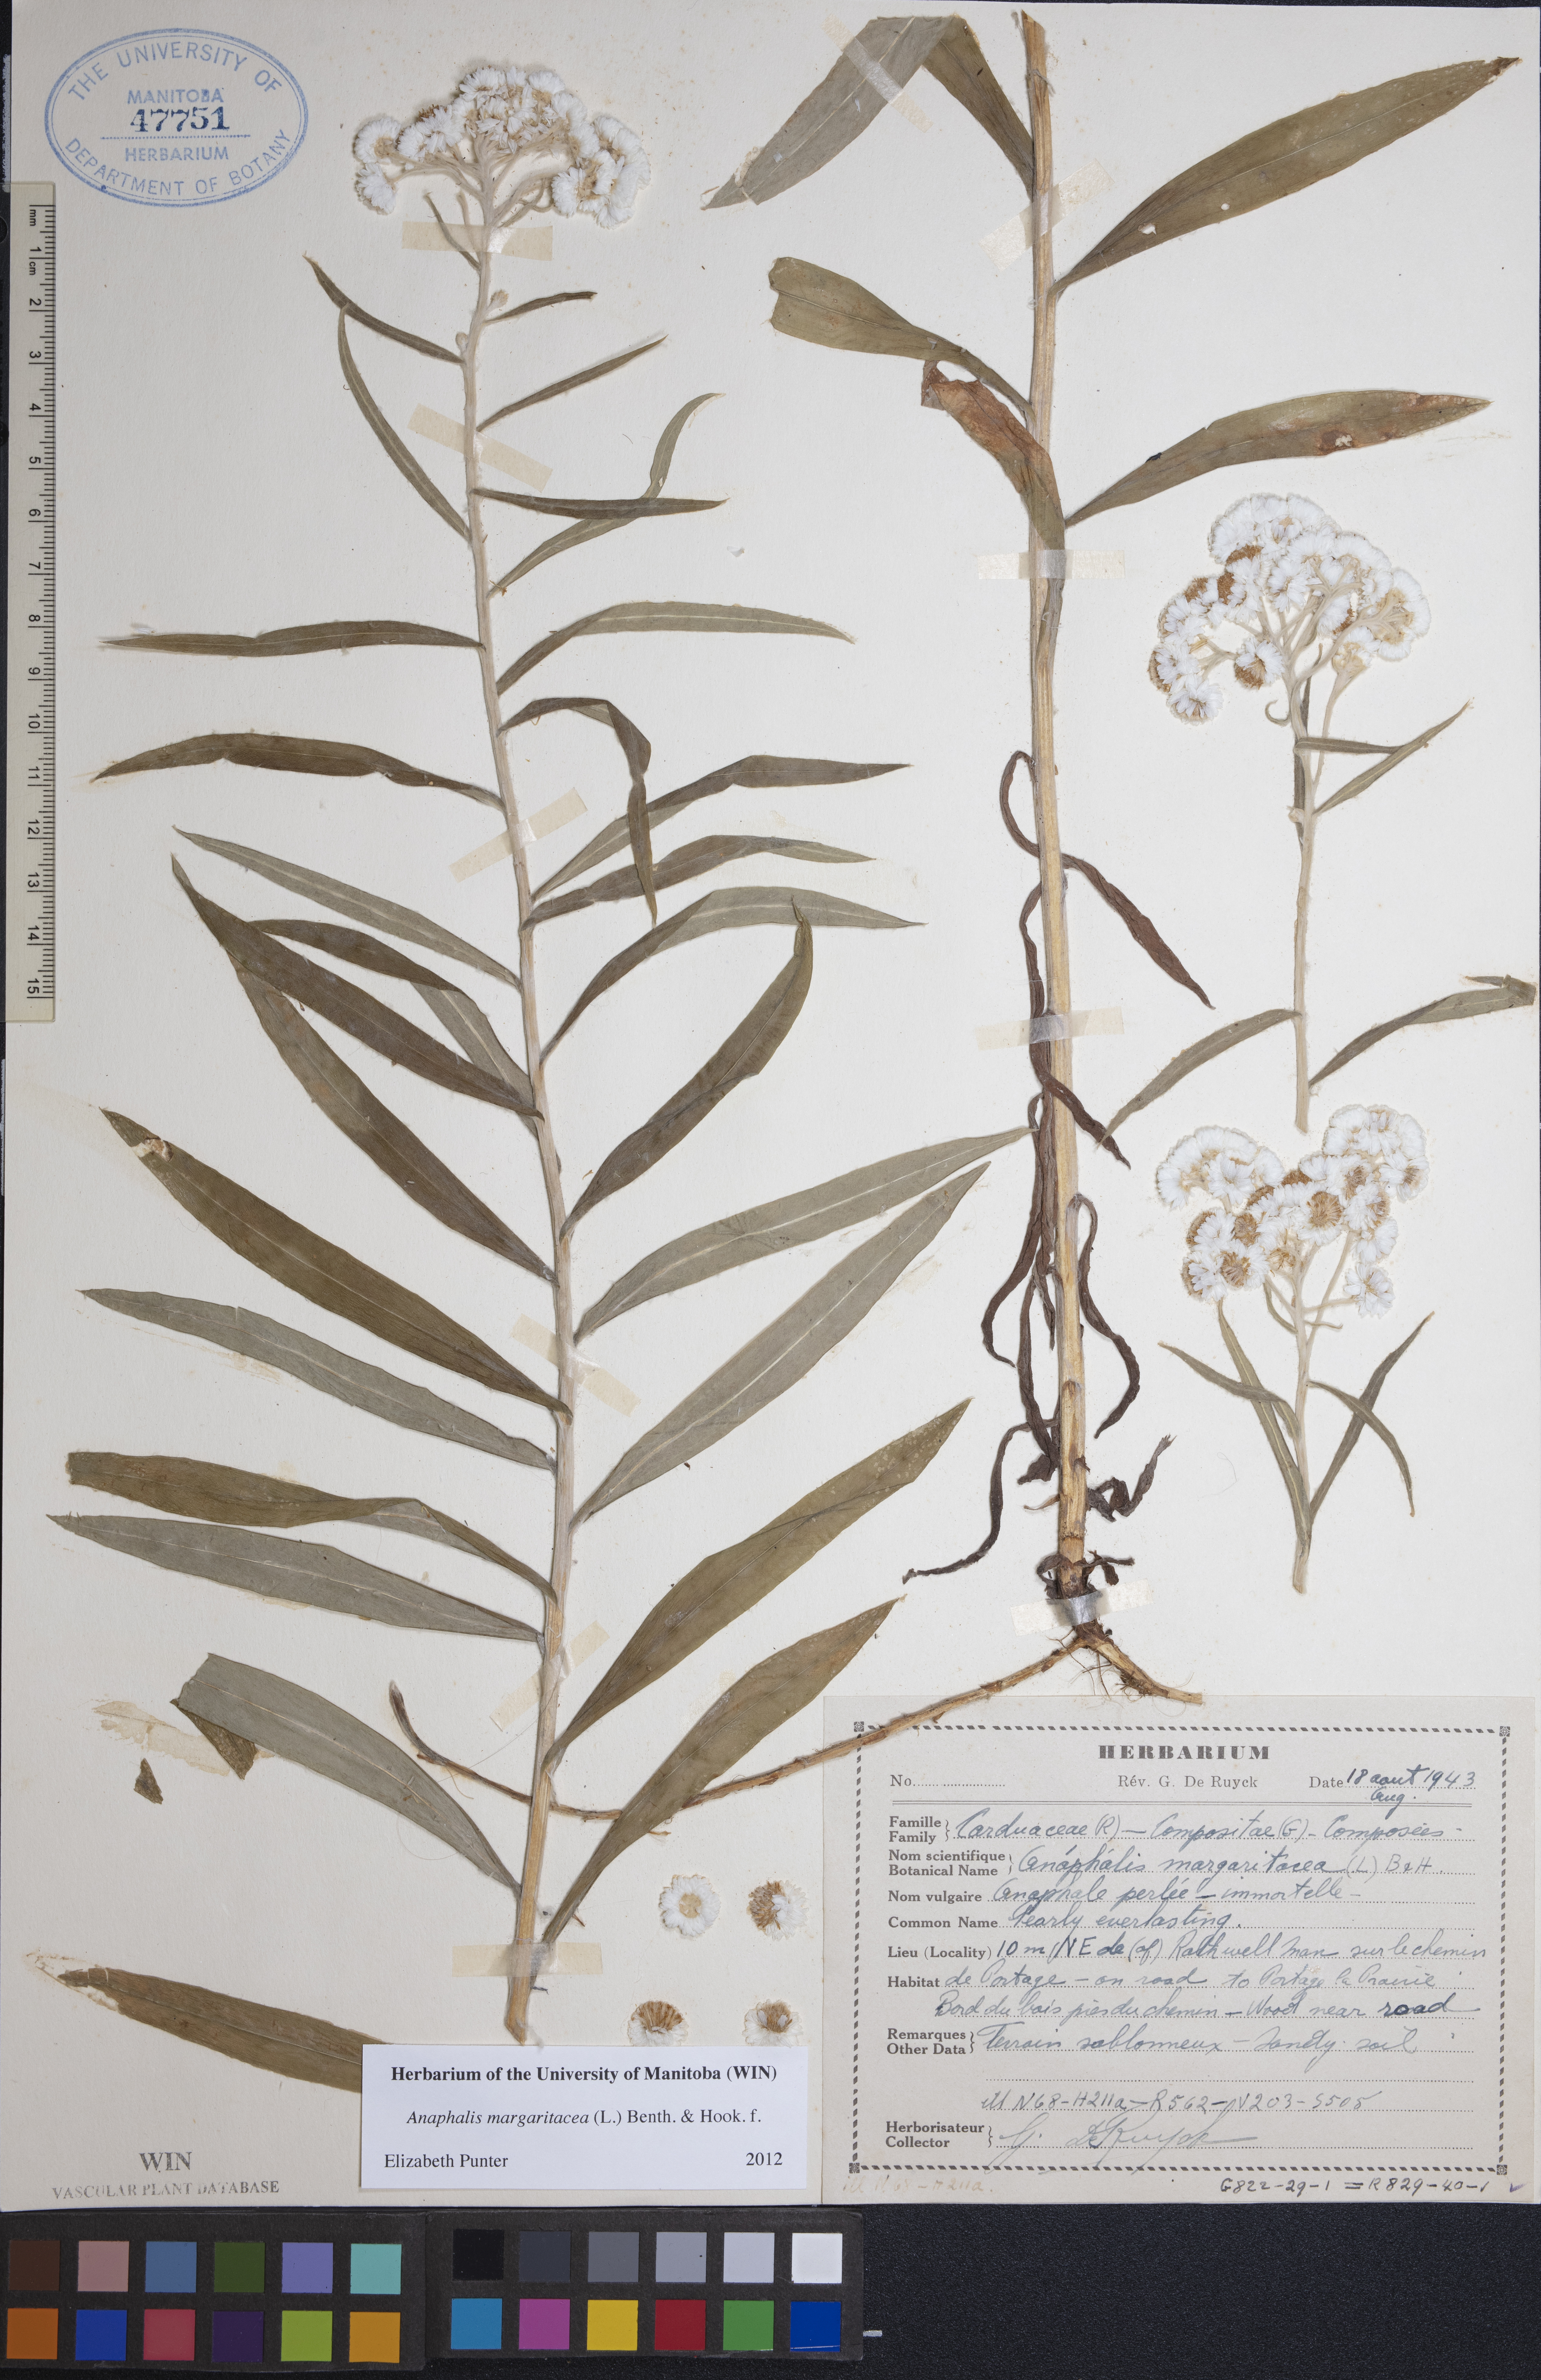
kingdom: Plantae
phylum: Tracheophyta
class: Magnoliopsida
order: Asterales
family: Asteraceae
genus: Anaphalis
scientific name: Anaphalis margaritacea
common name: Pearly everlasting
